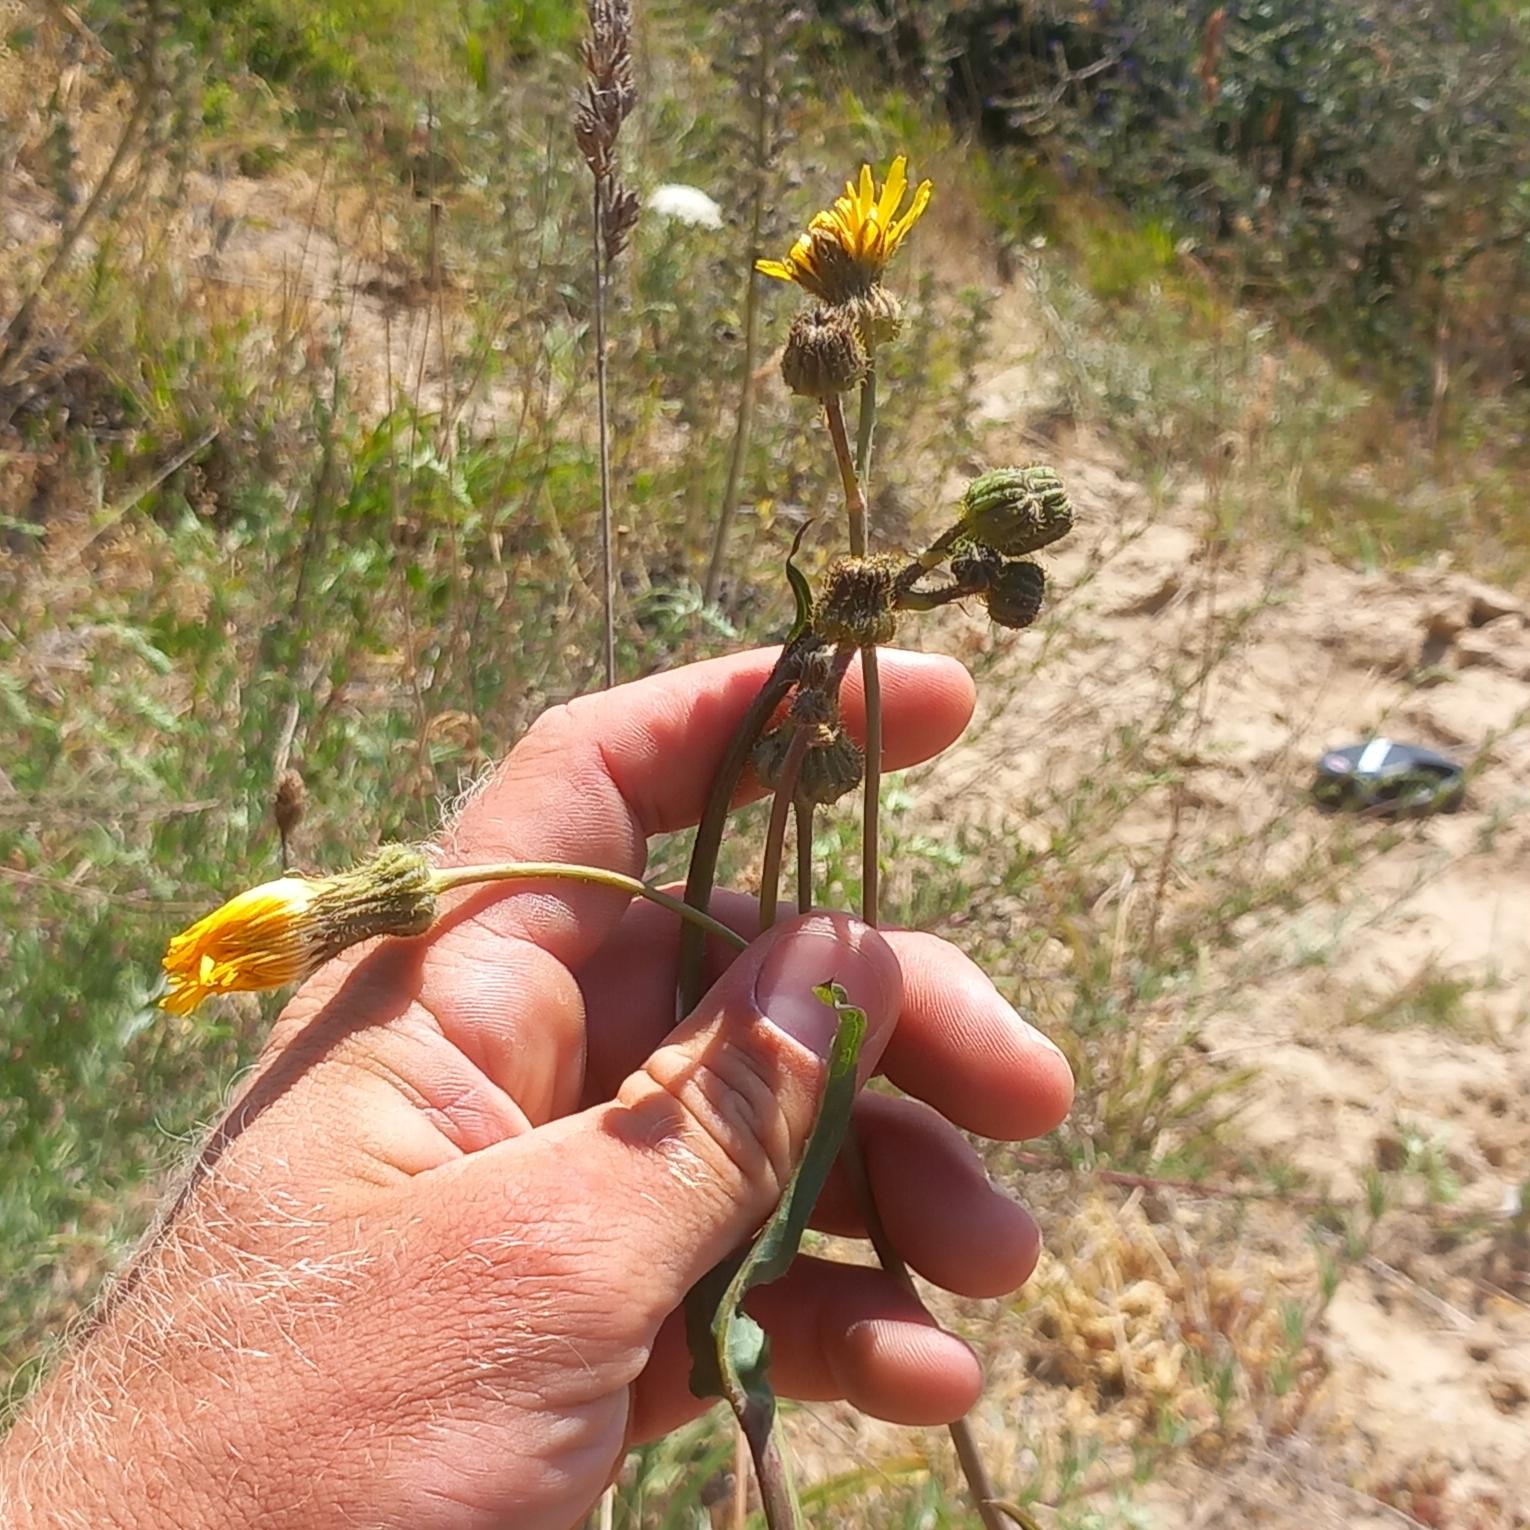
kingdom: Plantae
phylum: Tracheophyta
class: Magnoliopsida
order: Asterales
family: Asteraceae
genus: Sonchus
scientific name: Sonchus arvensis
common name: Ager-svinemælk
